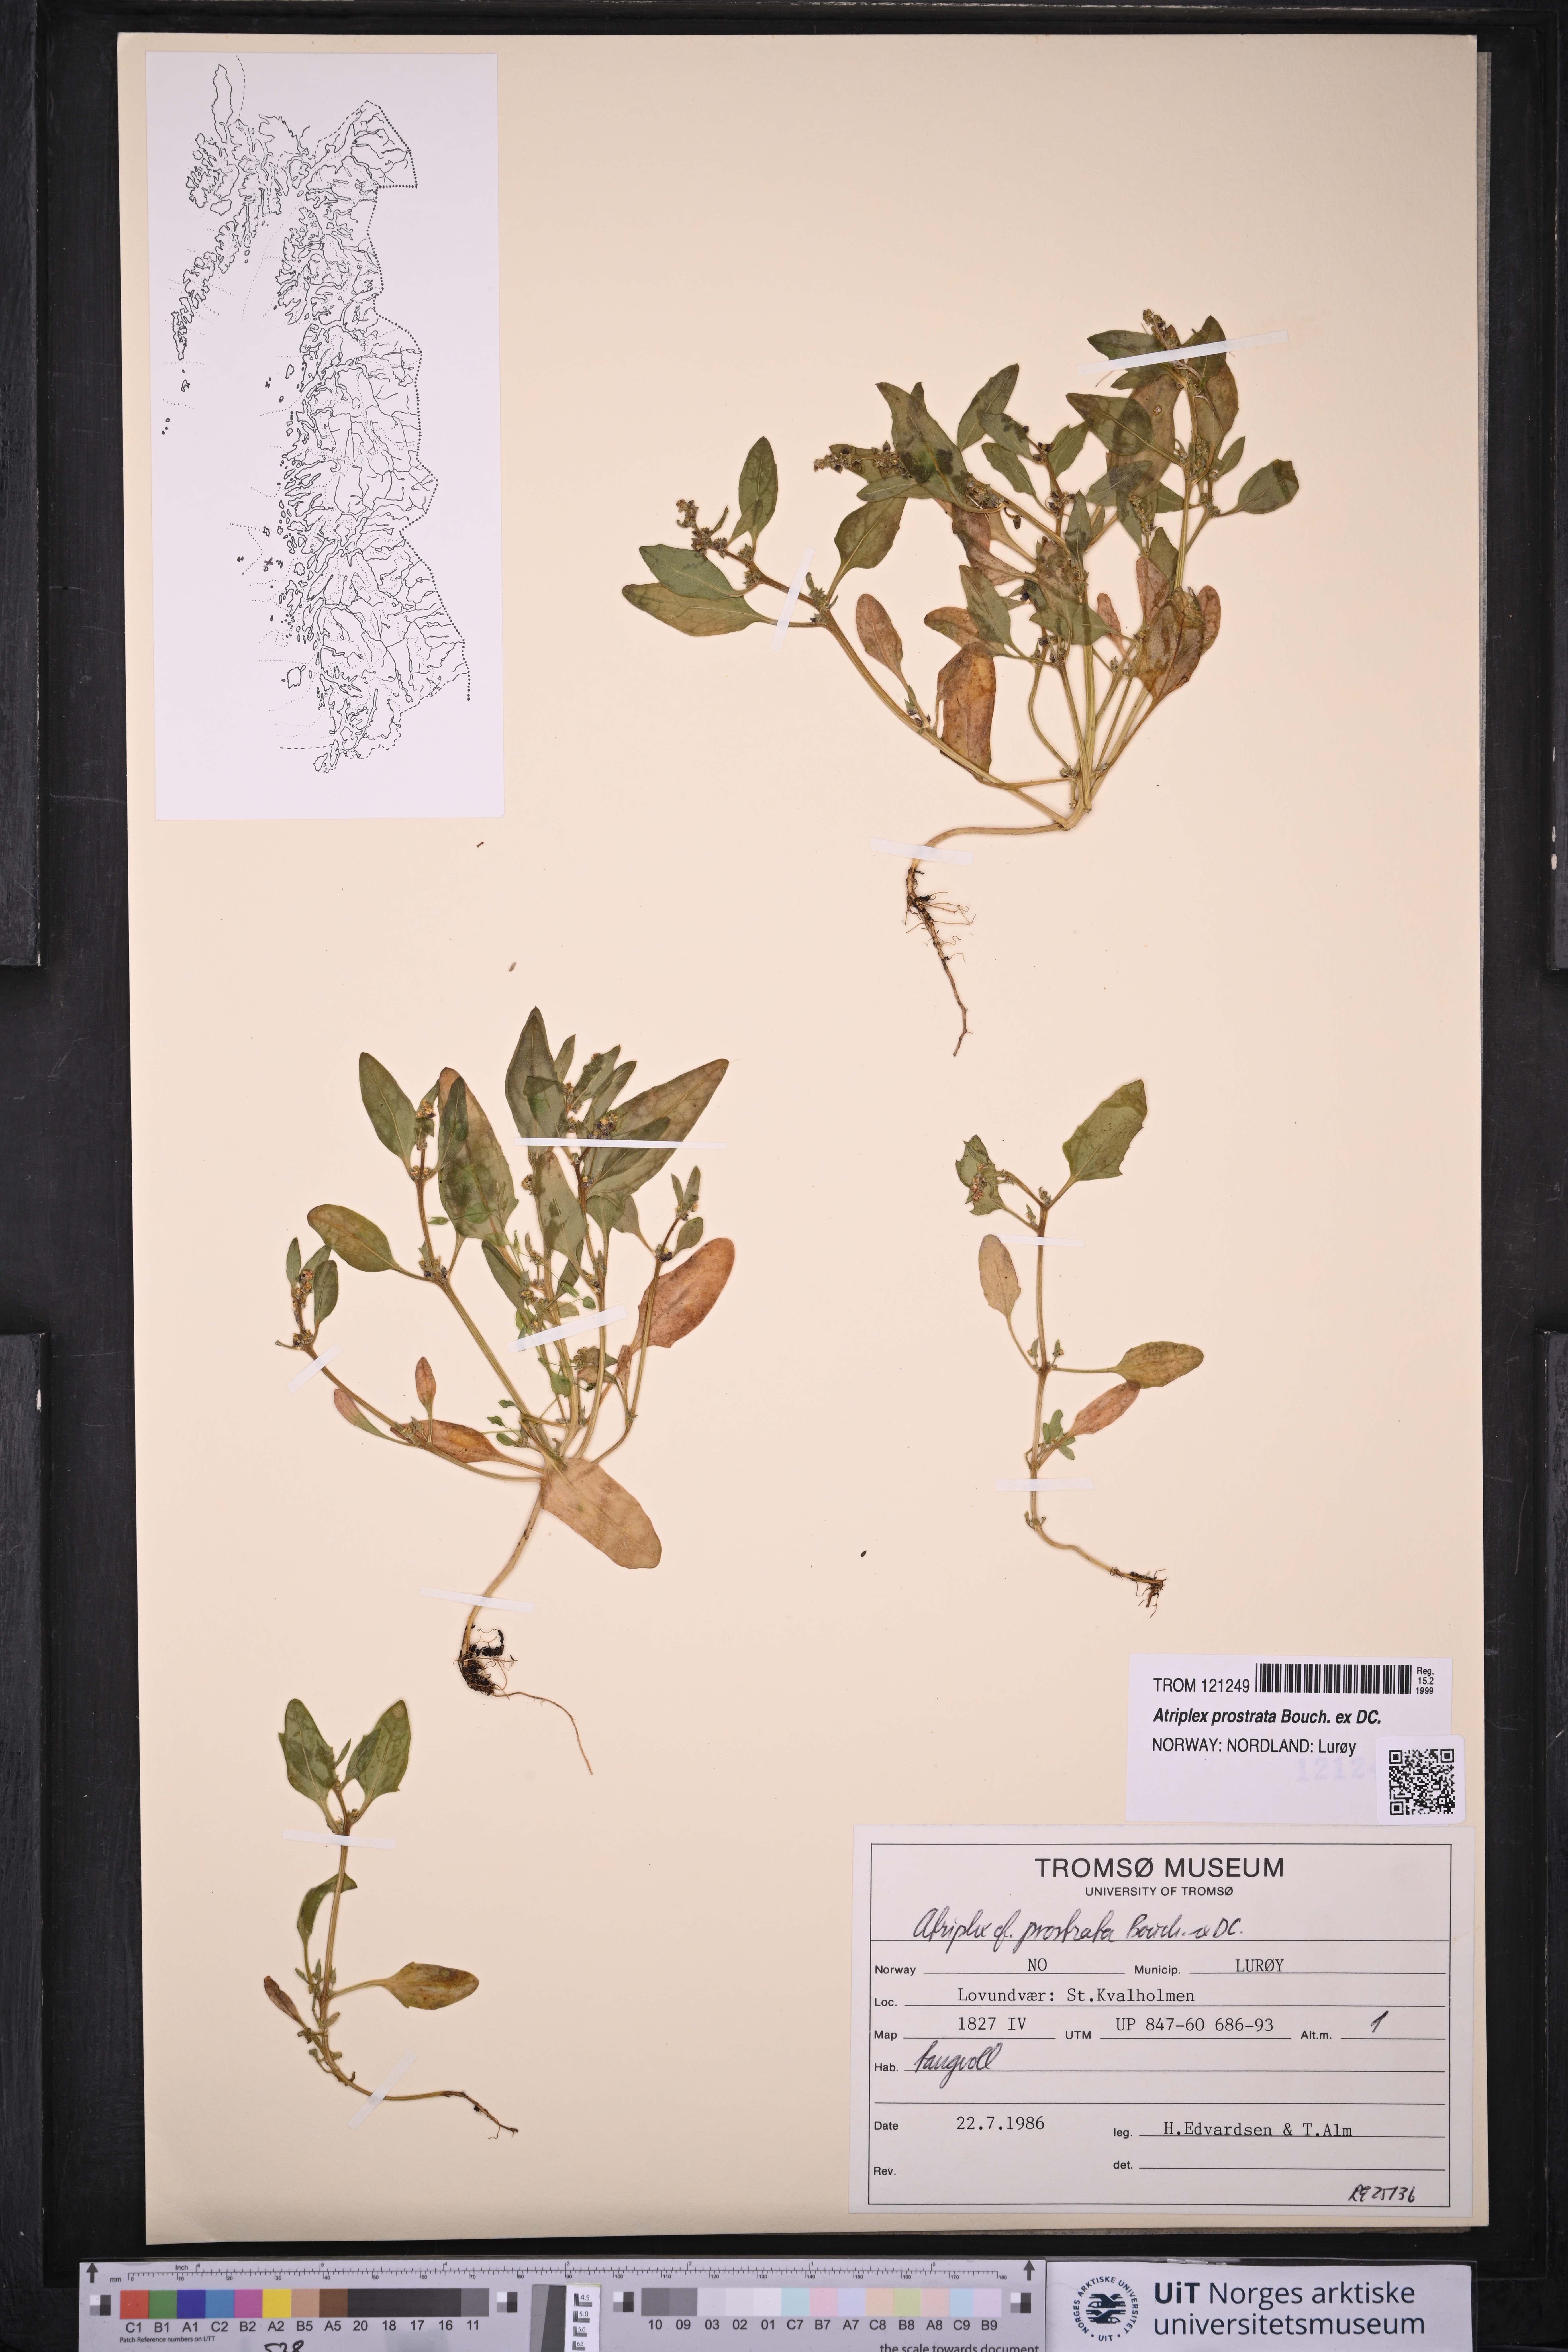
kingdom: Plantae
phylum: Tracheophyta
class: Magnoliopsida
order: Caryophyllales
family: Amaranthaceae
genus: Atriplex
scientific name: Atriplex prostrata
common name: Spear-leaved orache
